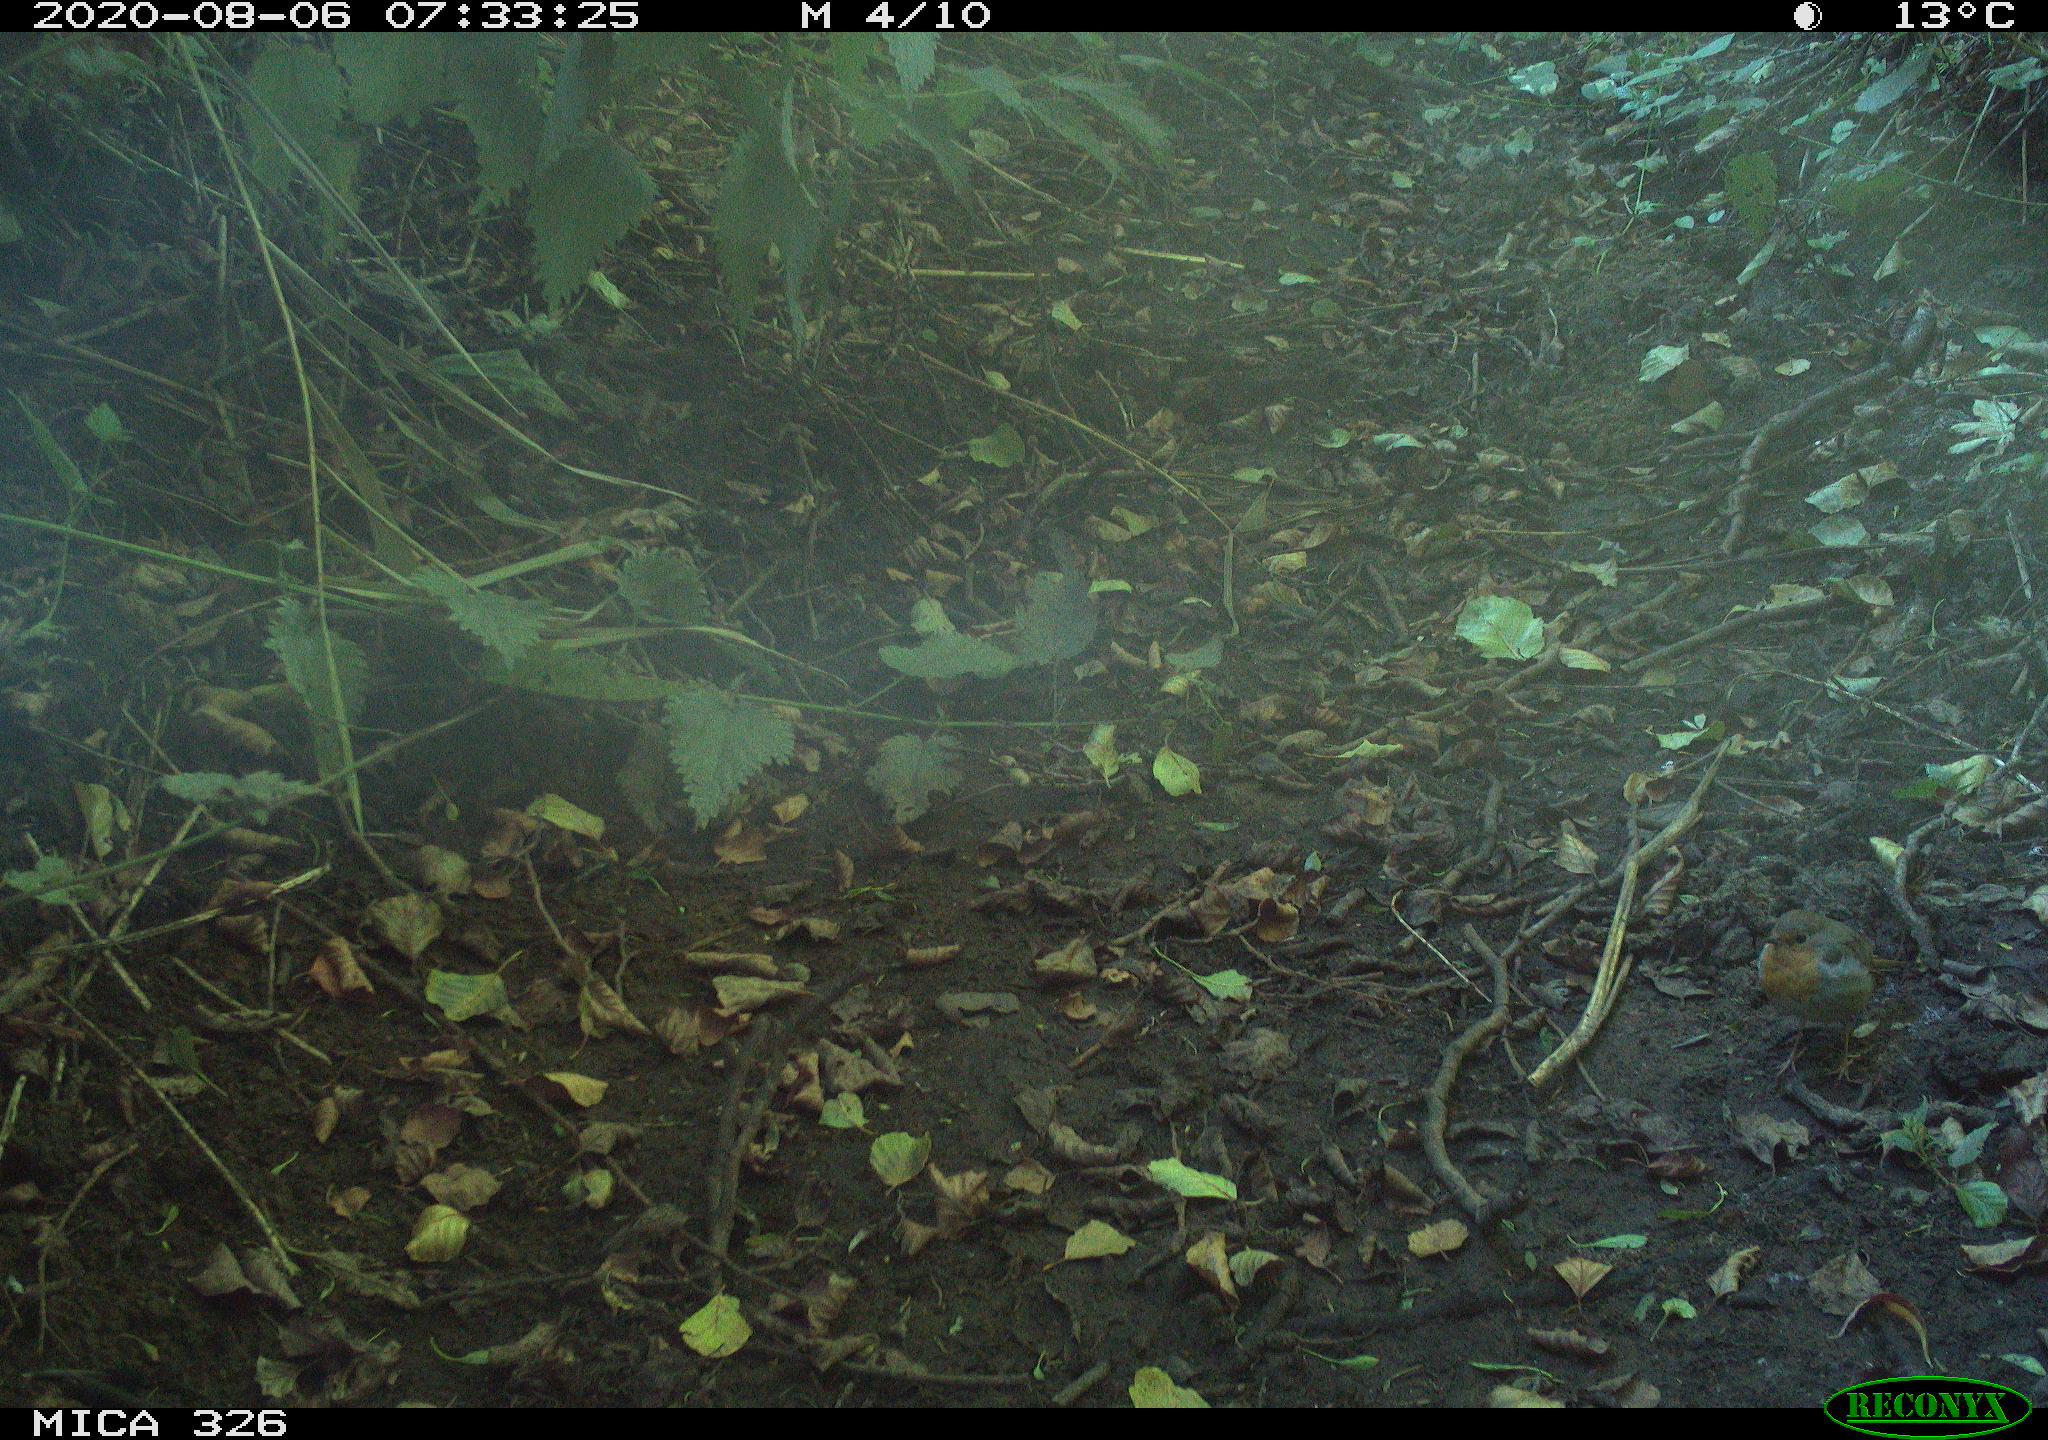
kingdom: Animalia
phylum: Chordata
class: Aves
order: Passeriformes
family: Muscicapidae
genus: Erithacus
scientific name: Erithacus rubecula
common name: European robin
